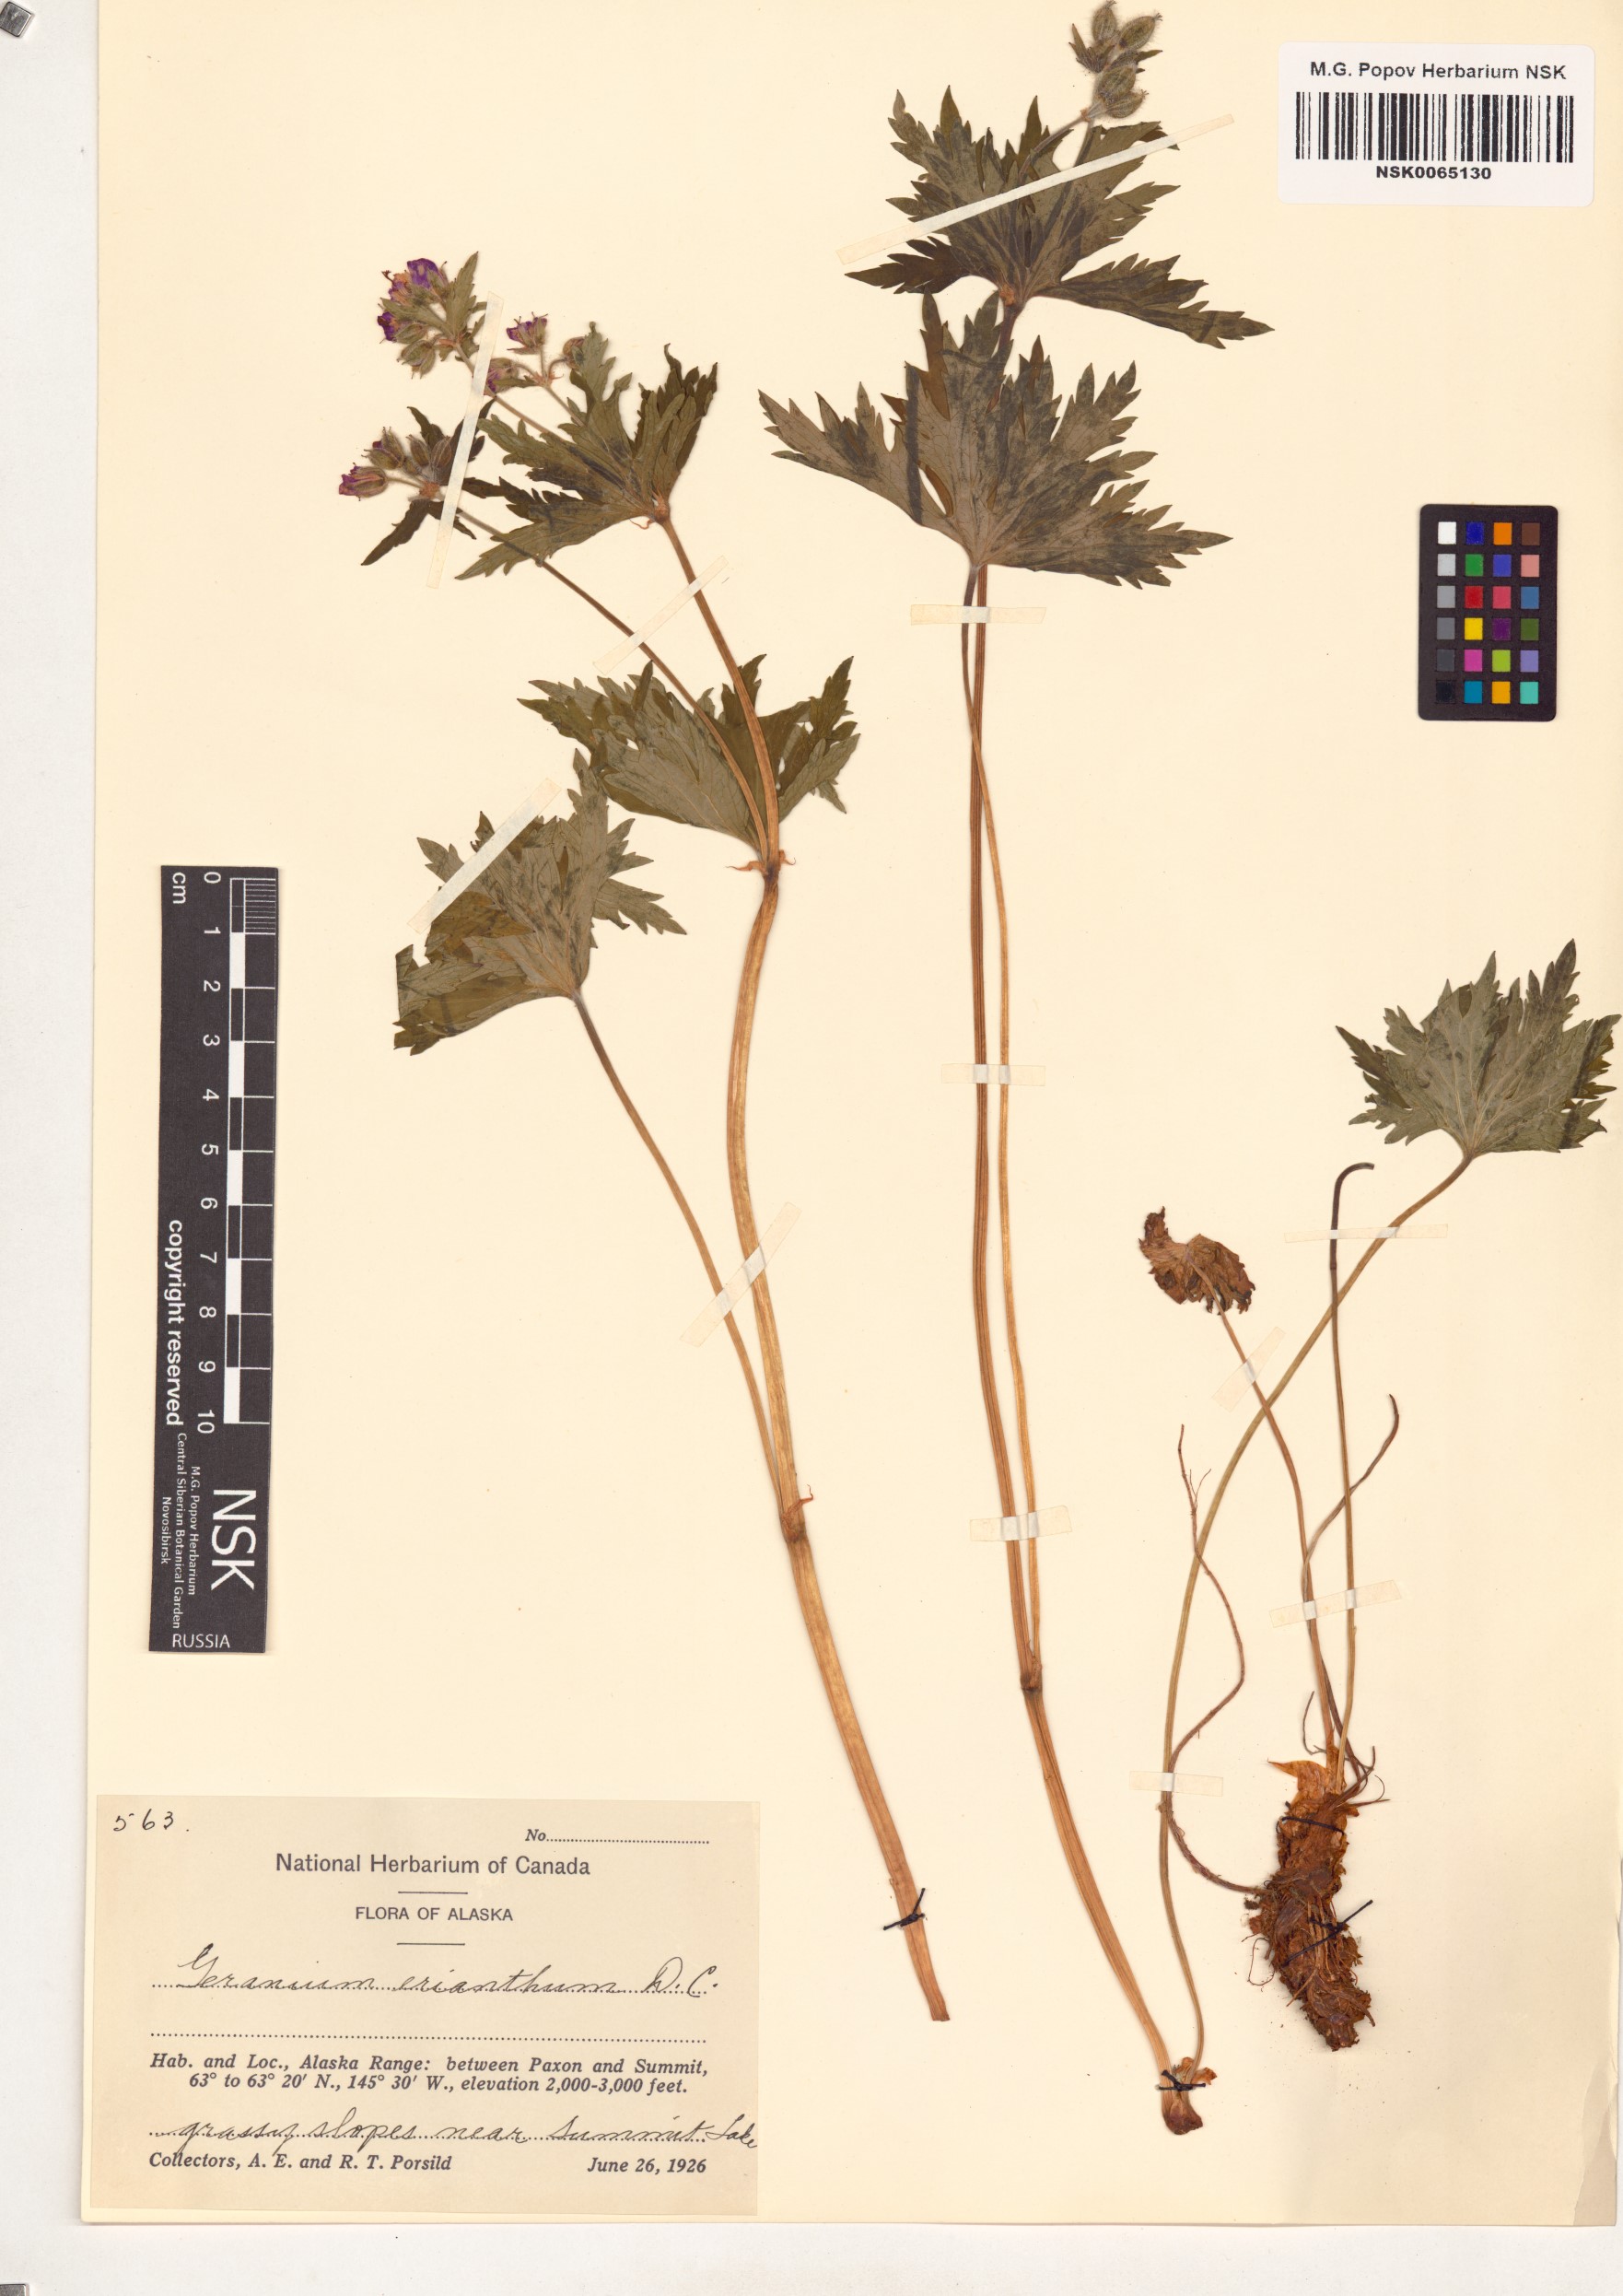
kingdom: Plantae
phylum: Tracheophyta
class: Magnoliopsida
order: Geraniales
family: Geraniaceae
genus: Geranium
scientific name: Geranium erianthum
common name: Northern crane's-bill
